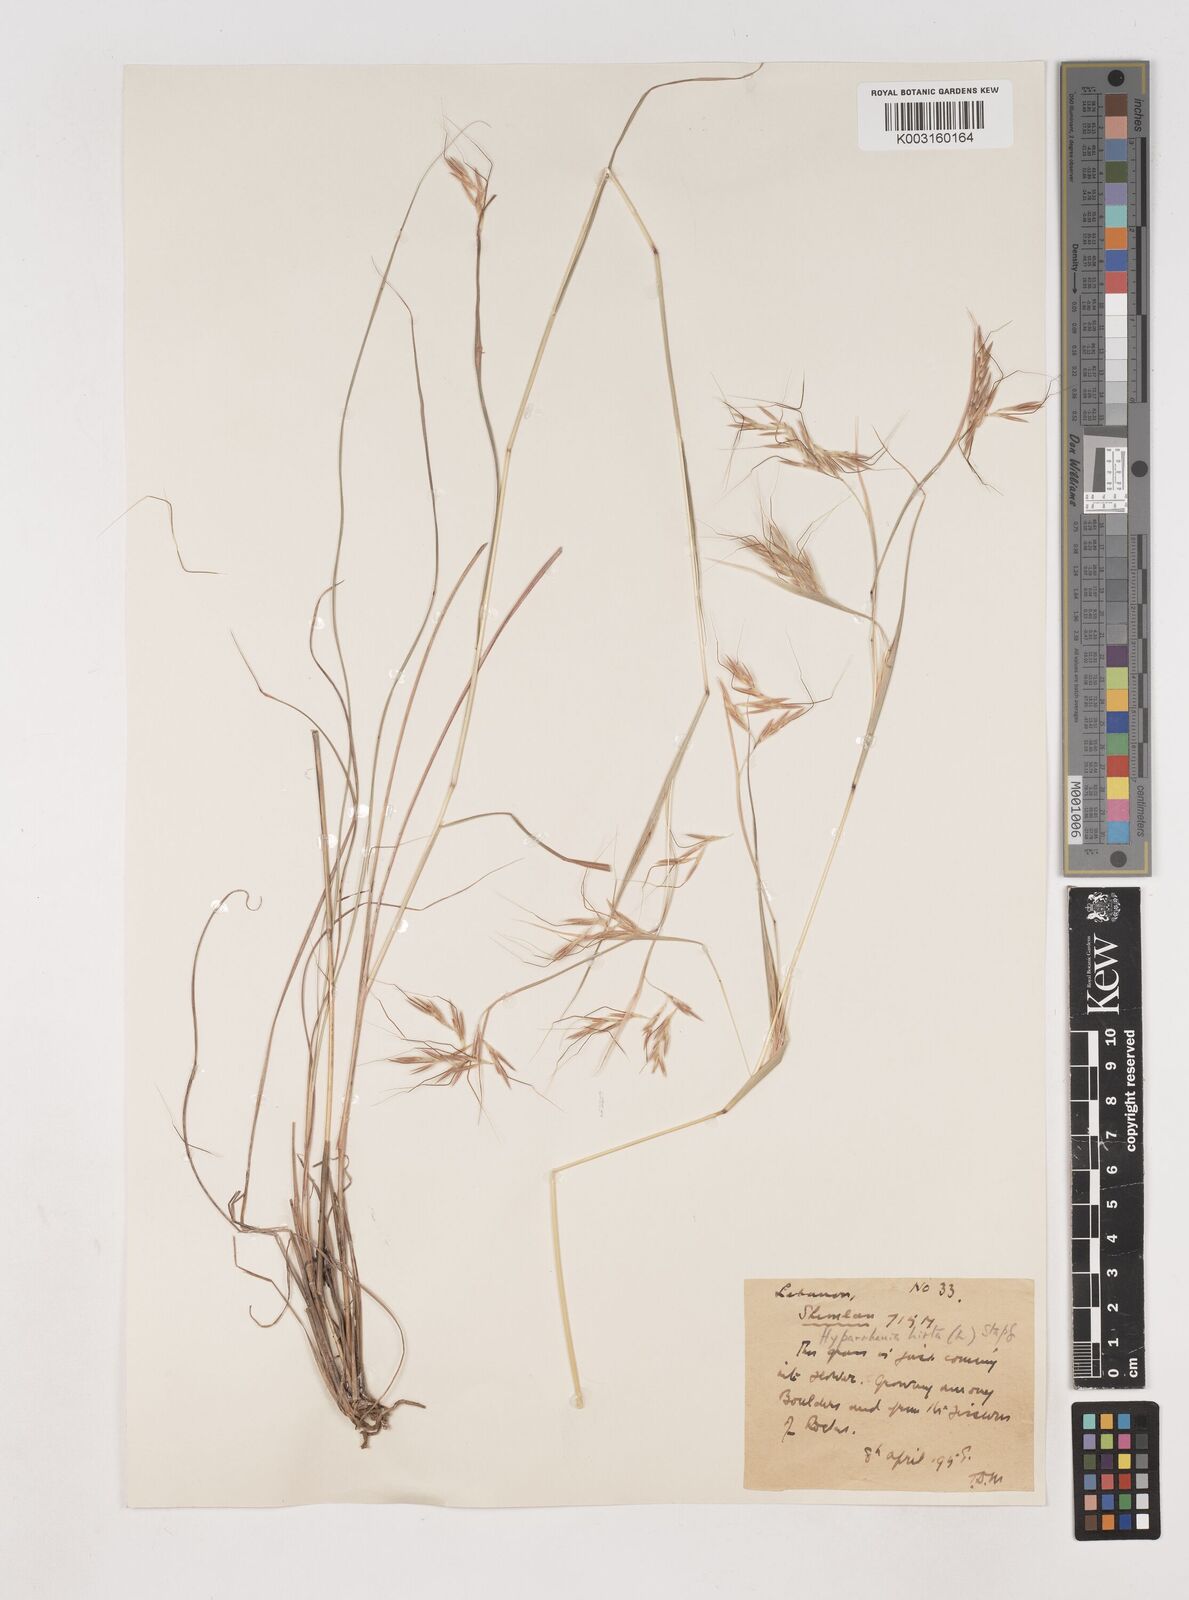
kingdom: Plantae
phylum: Tracheophyta
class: Liliopsida
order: Poales
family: Poaceae
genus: Hyparrhenia
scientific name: Hyparrhenia hirta
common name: Thatching grass
